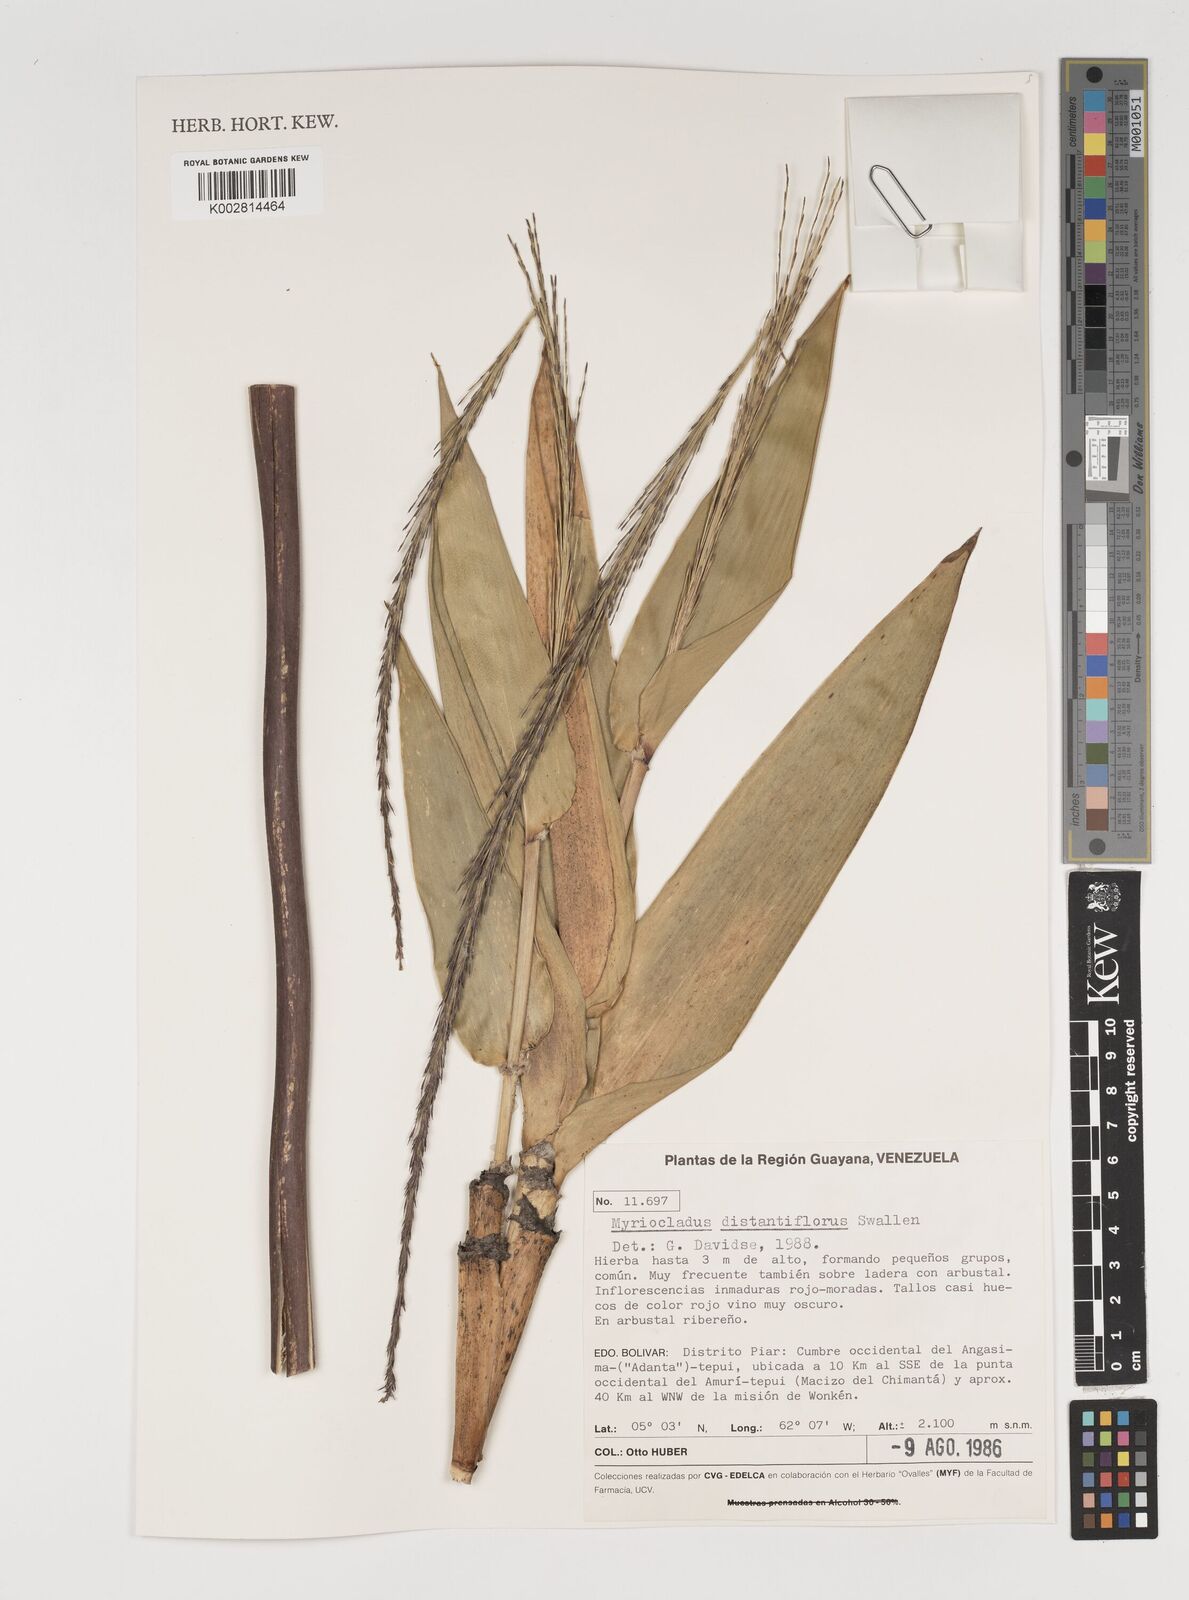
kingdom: Plantae
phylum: Tracheophyta
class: Liliopsida
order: Poales
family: Poaceae
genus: Myriocladus
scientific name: Myriocladus distantiflorus
